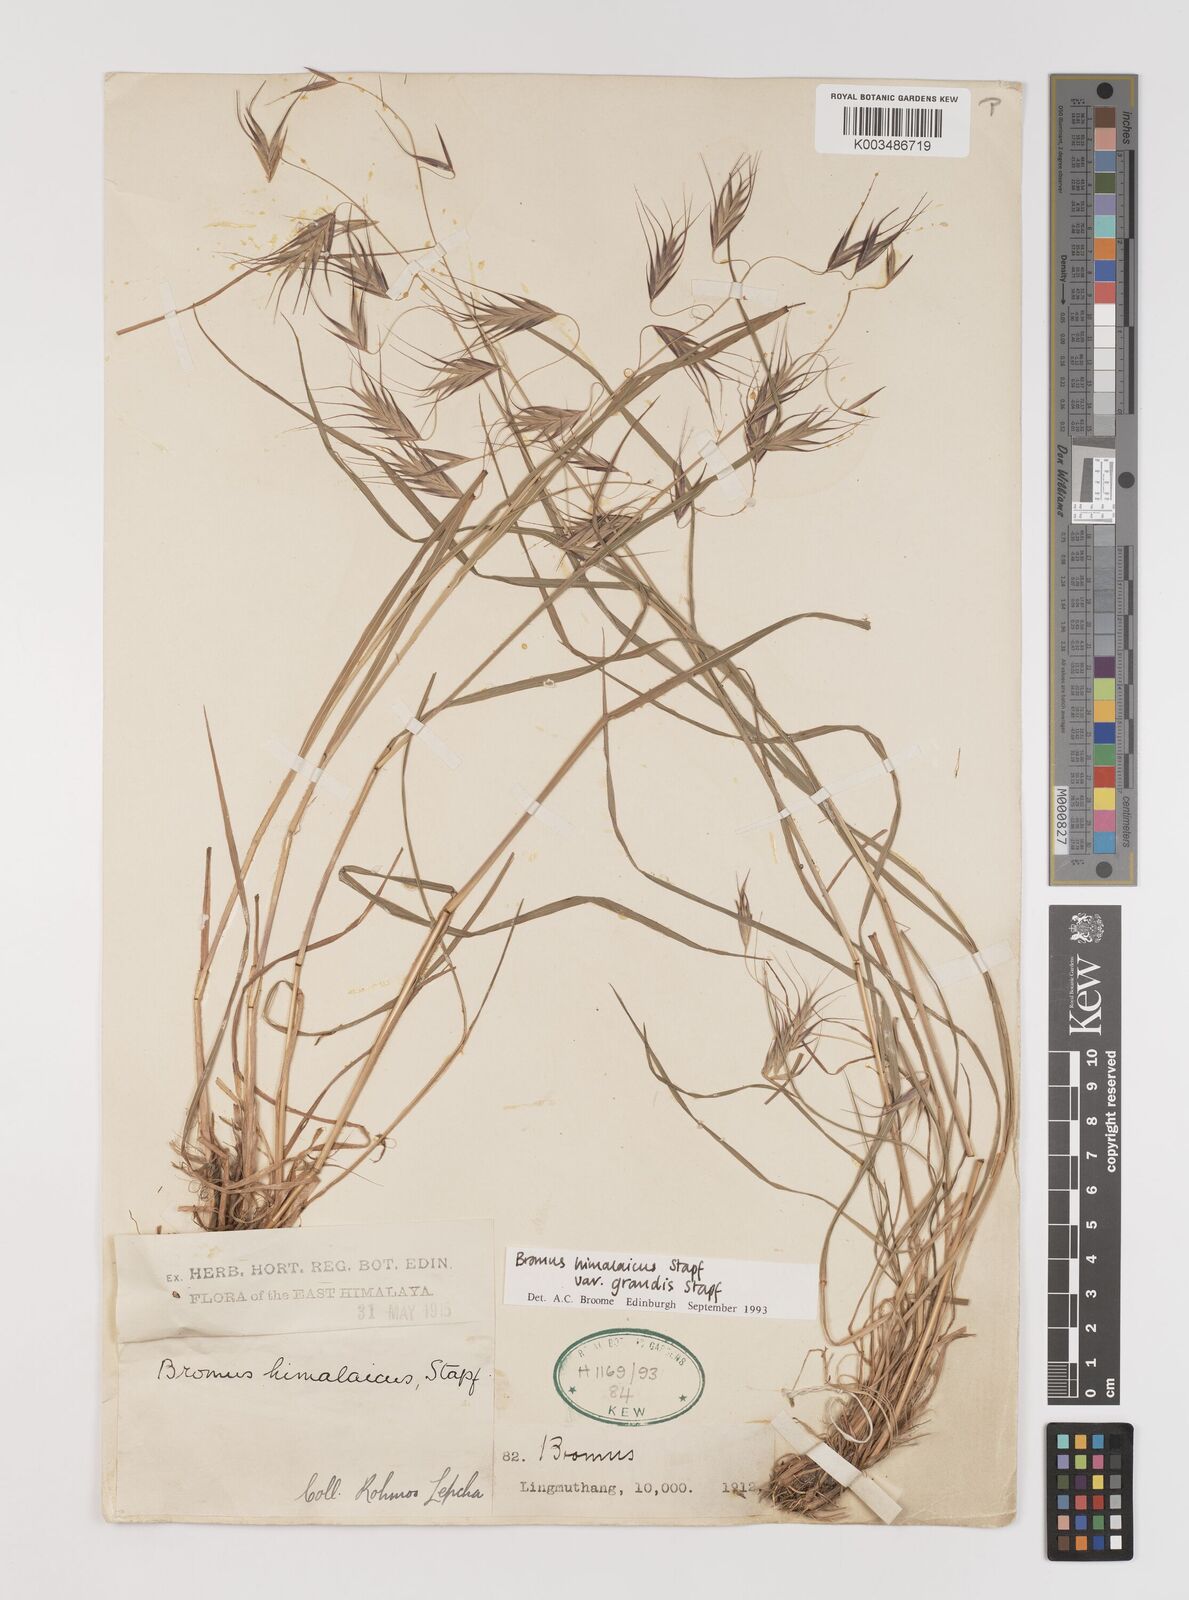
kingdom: Plantae
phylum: Tracheophyta
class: Liliopsida
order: Poales
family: Poaceae
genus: Bromus
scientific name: Bromus porphyranthos
